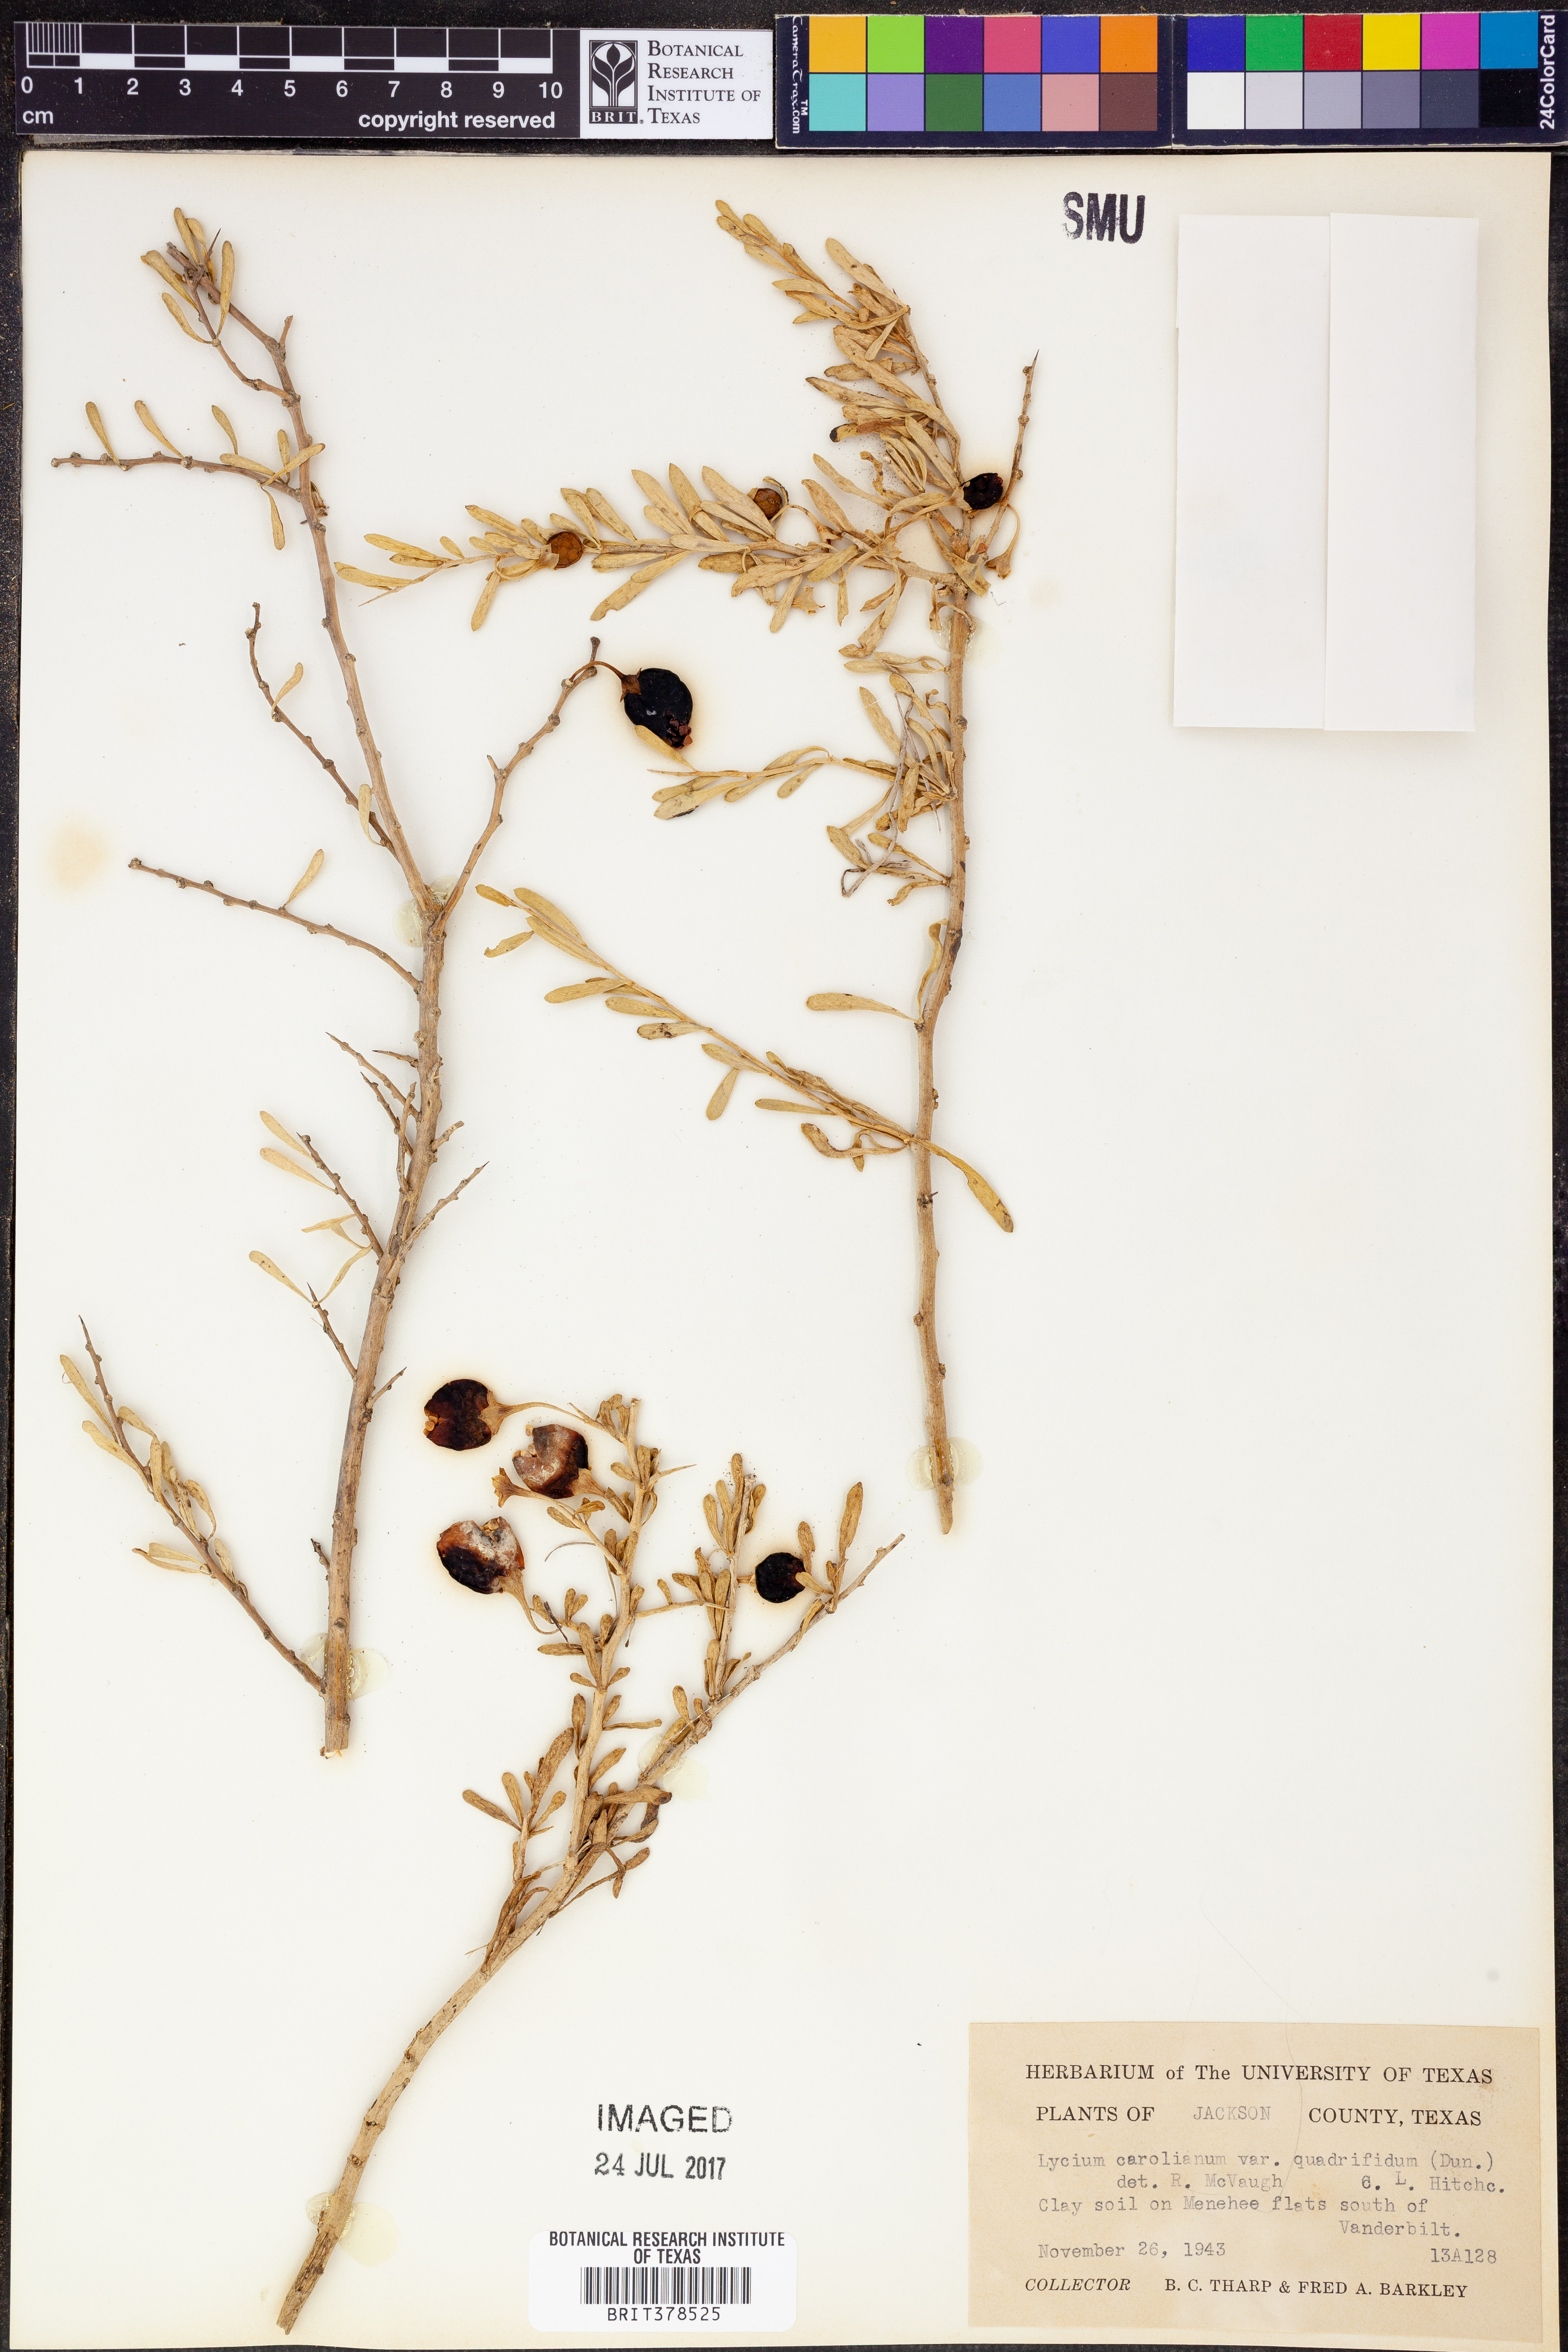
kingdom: Plantae
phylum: Tracheophyta
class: Magnoliopsida
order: Solanales
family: Solanaceae
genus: Lycium
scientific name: Lycium carolinianum
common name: Christmasberry
